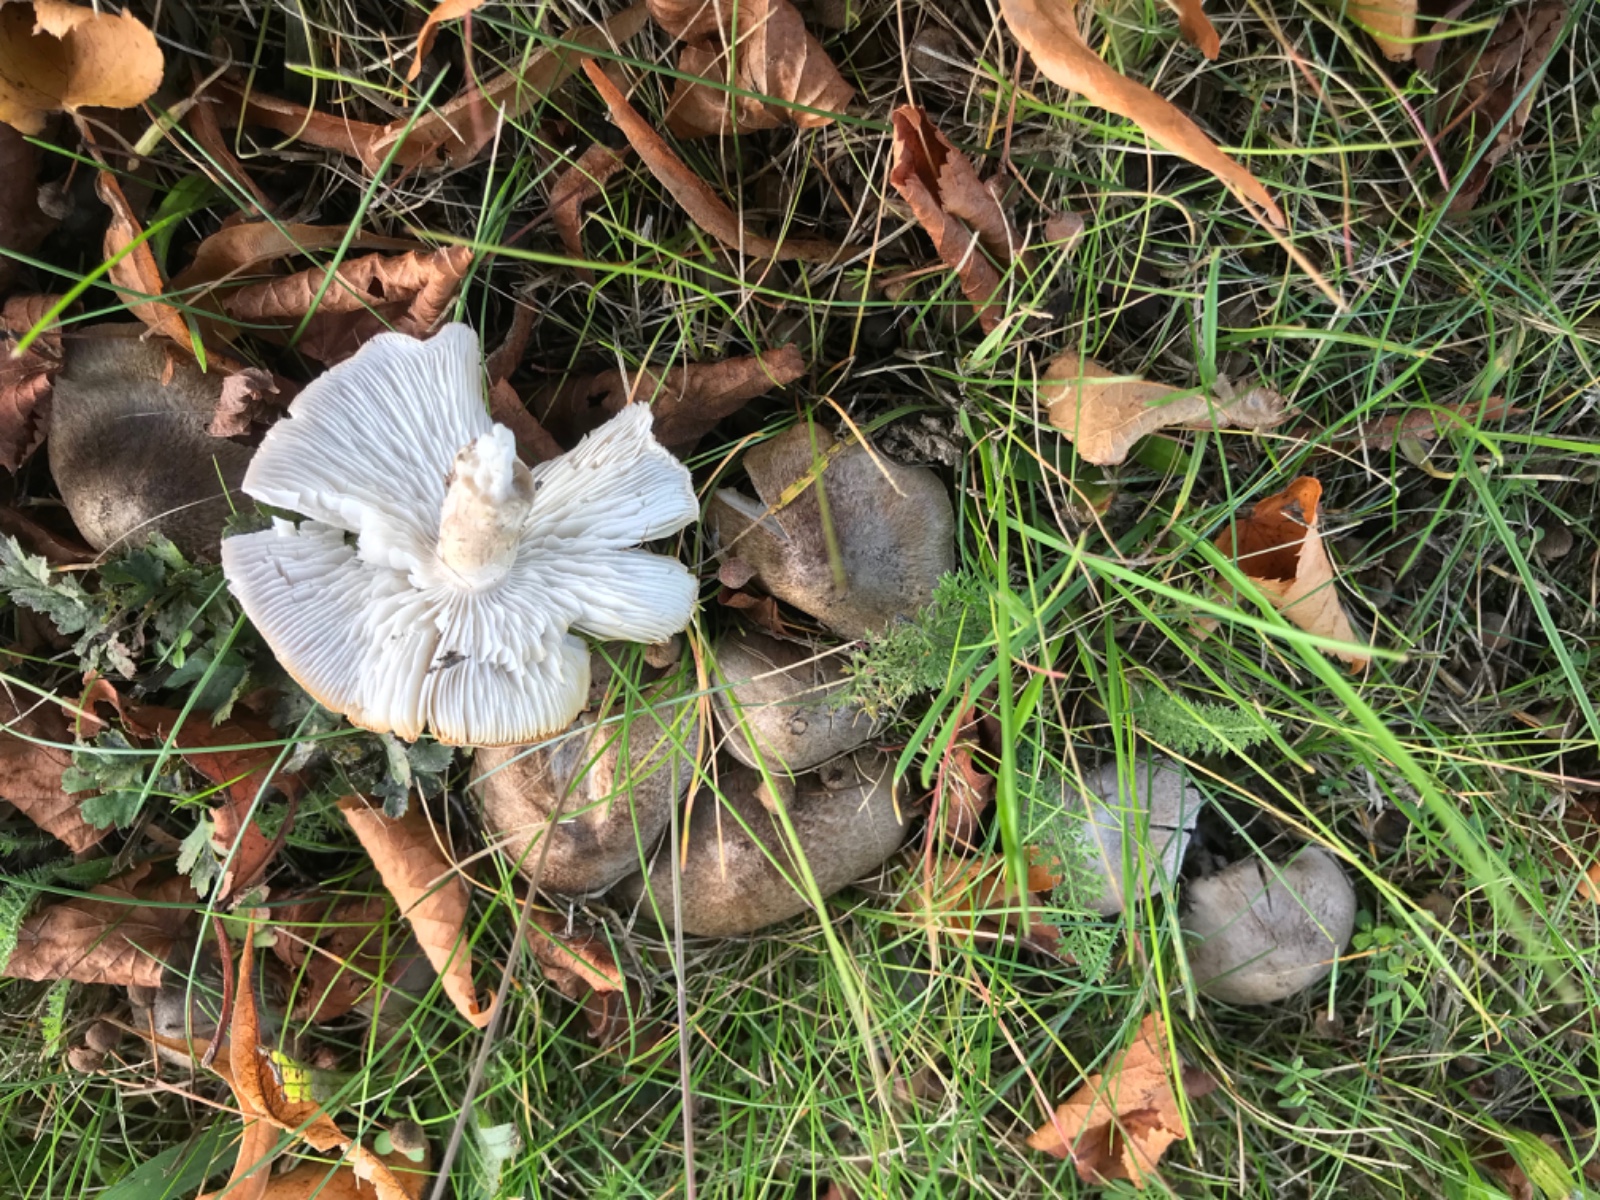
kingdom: Fungi
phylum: Basidiomycota
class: Agaricomycetes
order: Agaricales
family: Tricholomataceae
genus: Tricholoma
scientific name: Tricholoma scalpturatum
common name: gulplettet ridderhat
